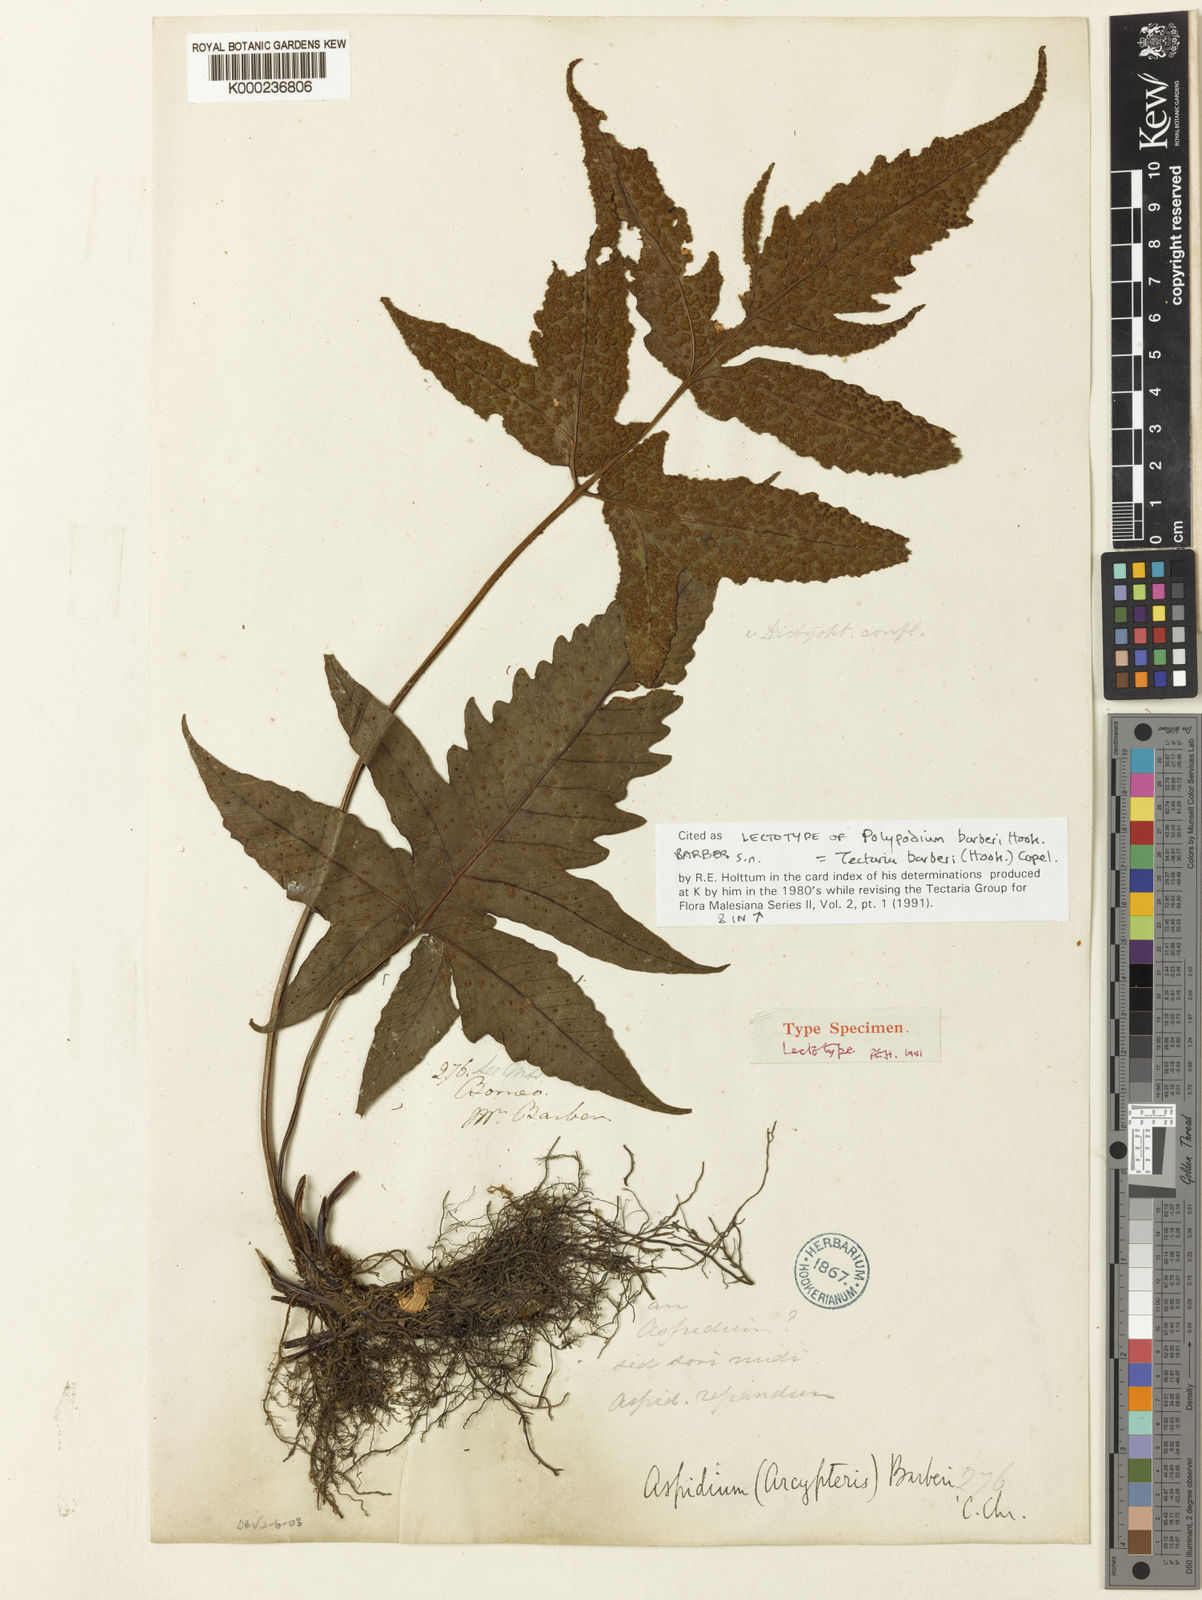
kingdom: Plantae
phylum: Tracheophyta
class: Polypodiopsida
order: Polypodiales
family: Tectariaceae
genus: Tectaria
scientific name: Tectaria barberi
